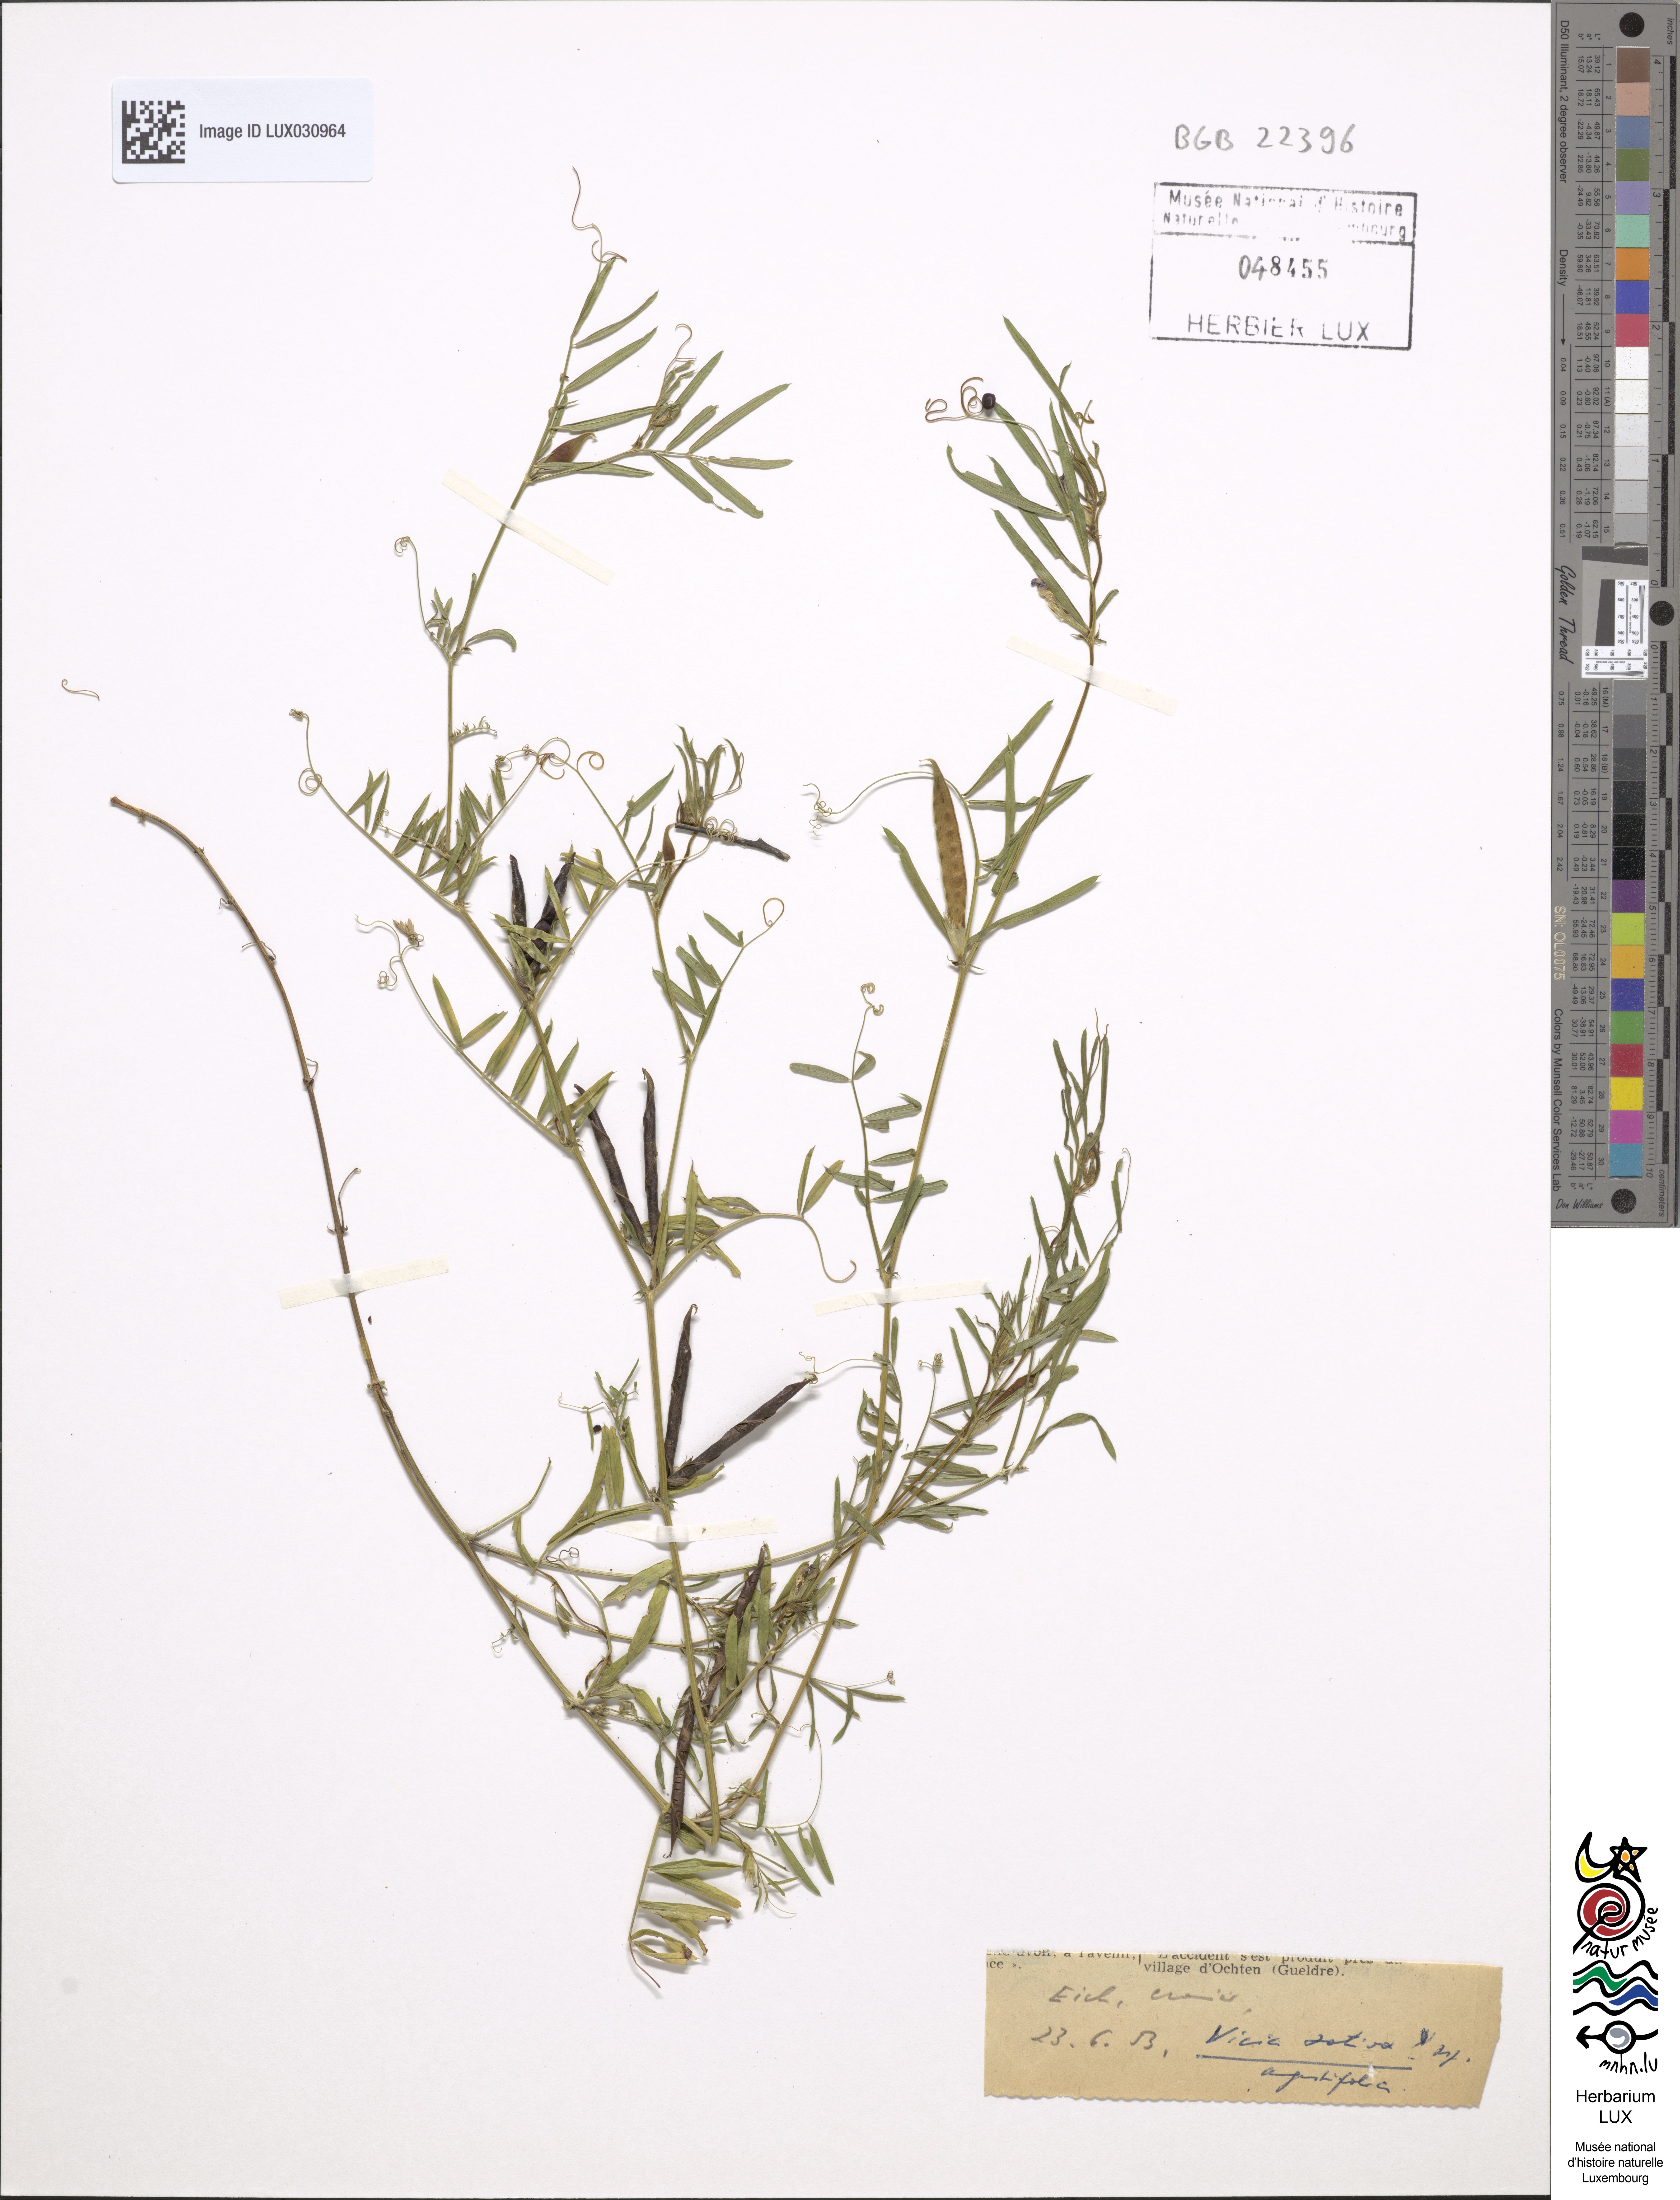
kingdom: Plantae
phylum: Tracheophyta
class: Magnoliopsida
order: Fabales
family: Fabaceae
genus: Vicia
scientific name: Vicia sativa
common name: Garden vetch
